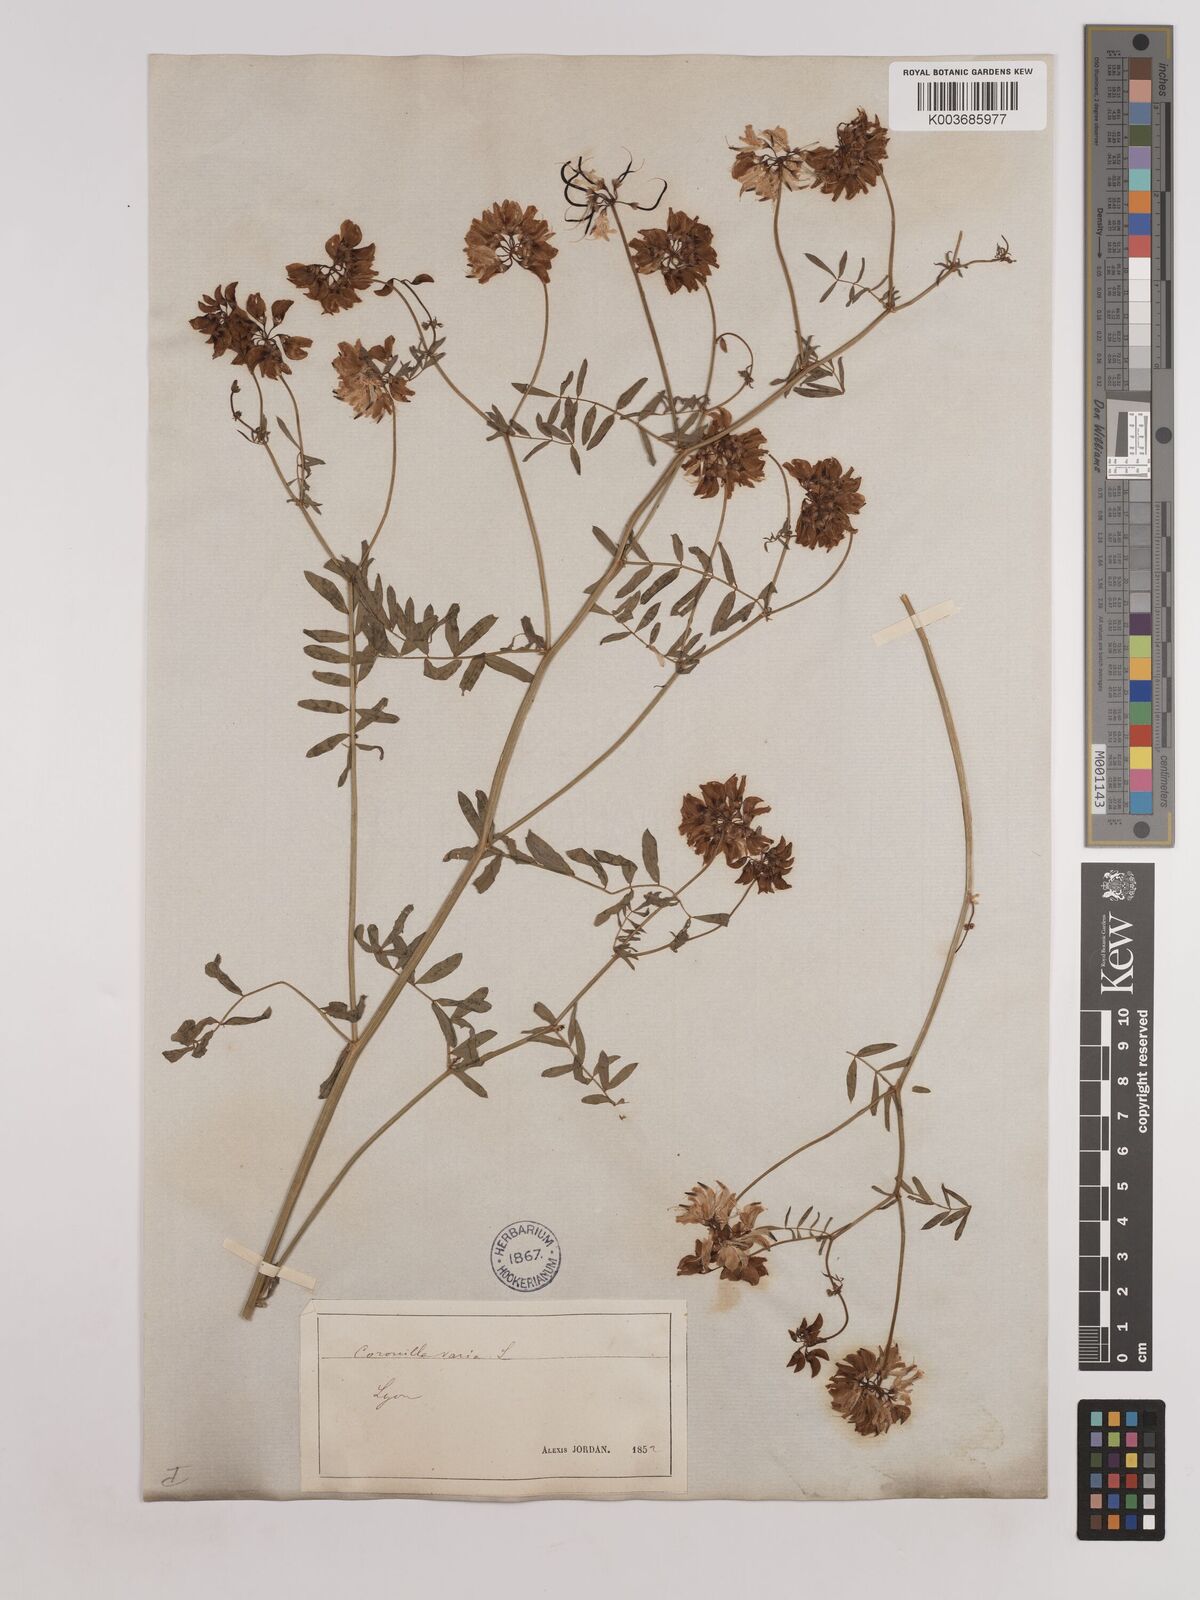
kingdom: Plantae
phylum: Tracheophyta
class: Magnoliopsida
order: Fabales
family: Fabaceae
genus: Coronilla
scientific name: Coronilla varia
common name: Crownvetch
